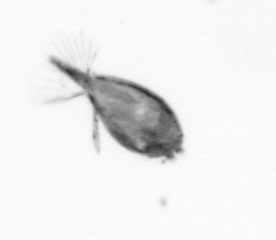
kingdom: Animalia
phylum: Arthropoda
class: Maxillopoda
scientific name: Maxillopoda
